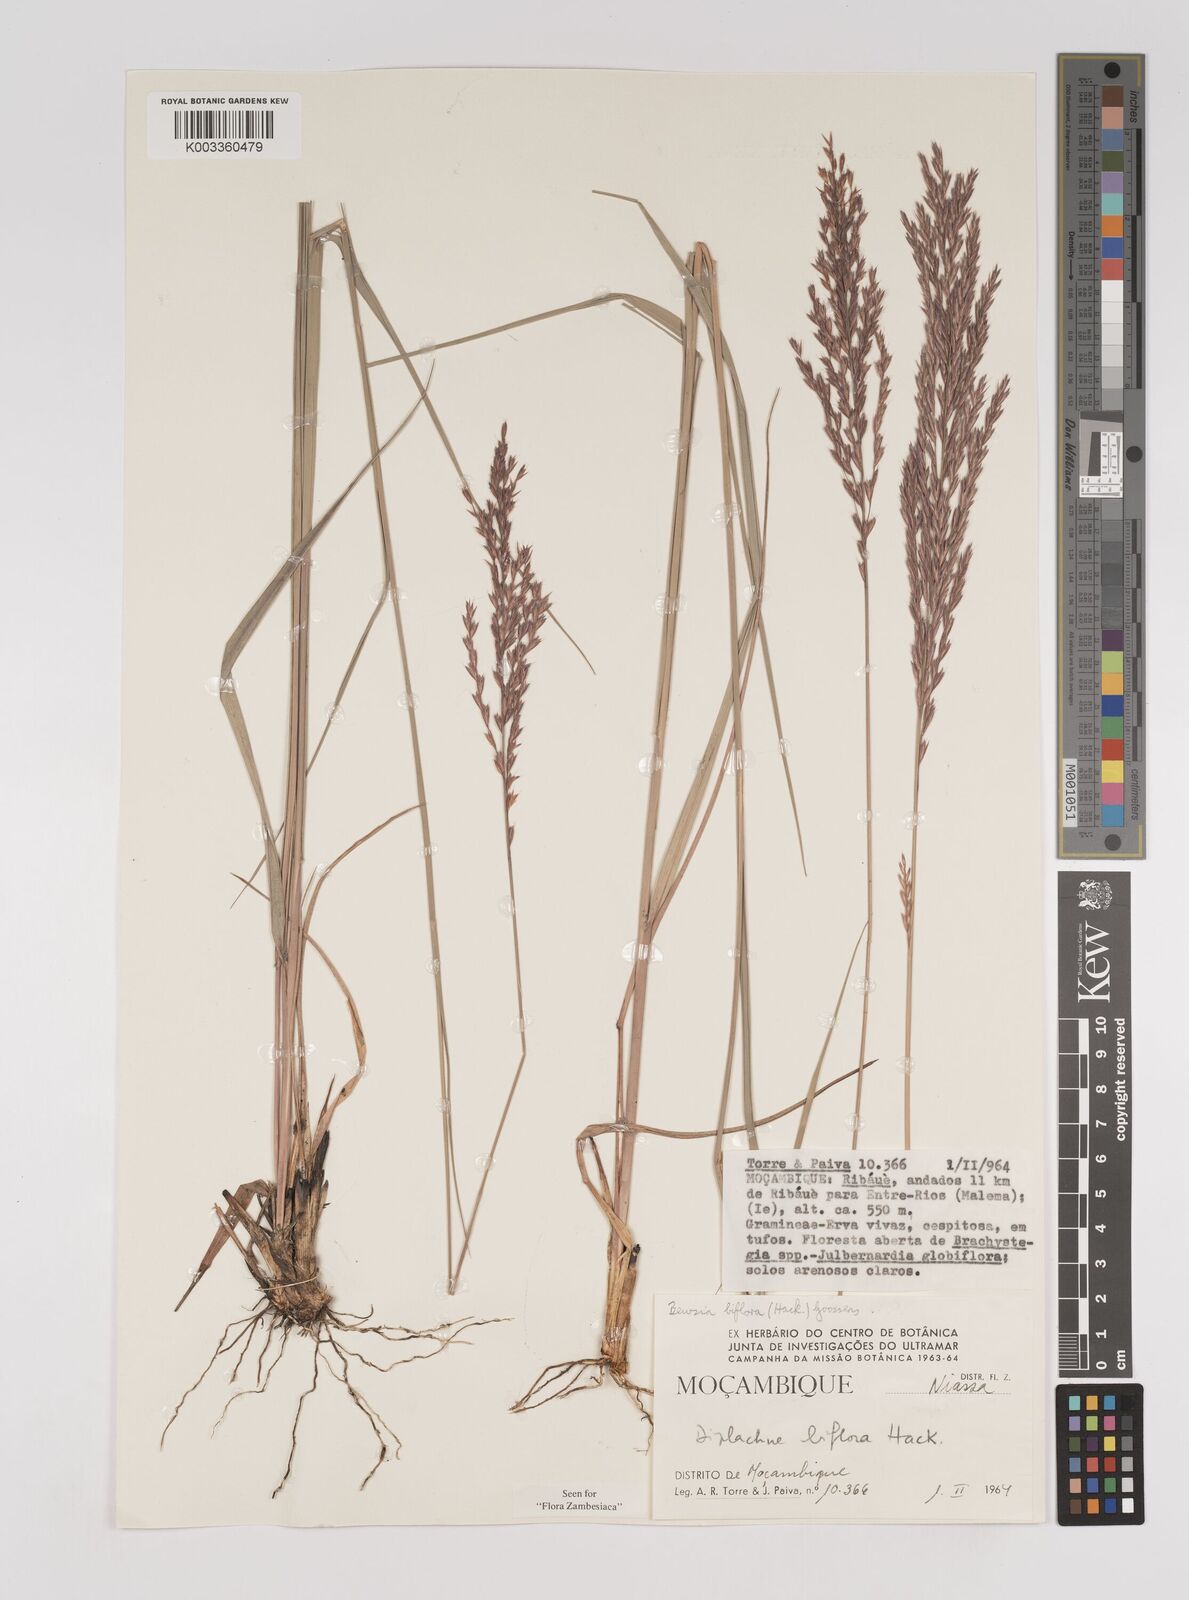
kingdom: Plantae
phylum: Tracheophyta
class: Liliopsida
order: Poales
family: Poaceae
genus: Bewsia
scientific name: Bewsia biflora
